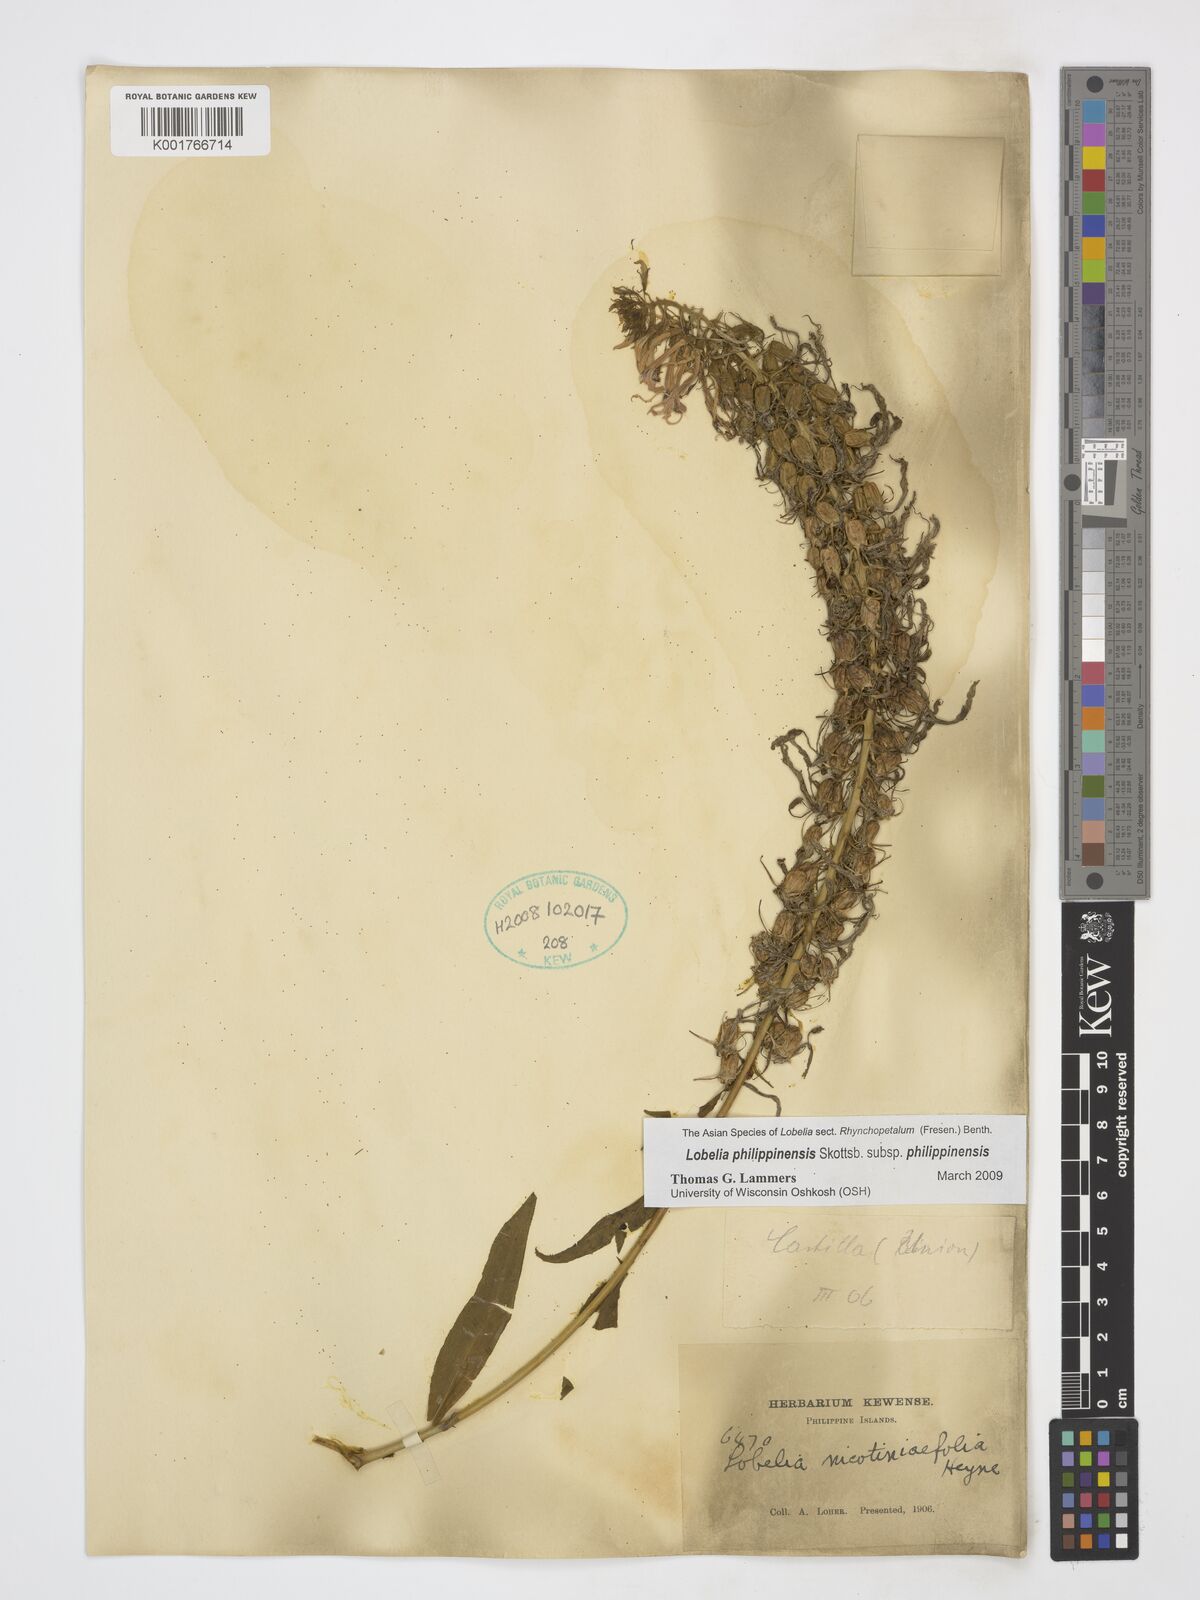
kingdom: Plantae
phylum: Tracheophyta
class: Magnoliopsida
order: Asterales
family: Campanulaceae
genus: Lobelia
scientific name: Lobelia philippinensis
